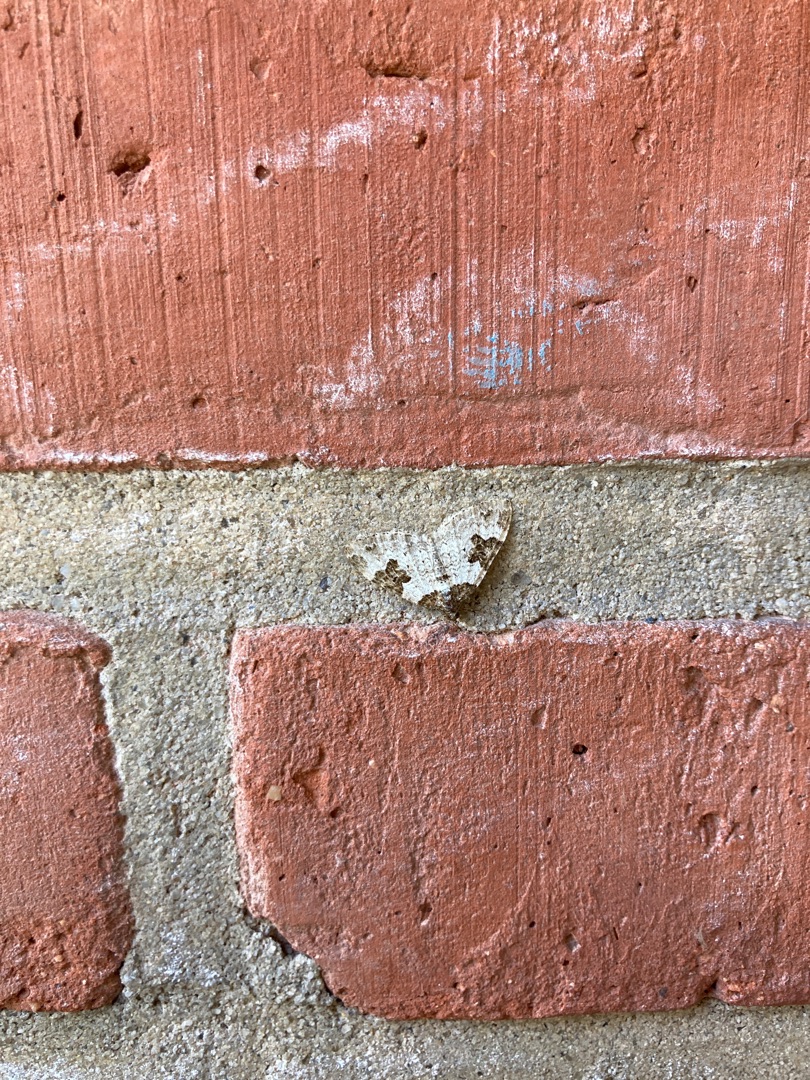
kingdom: Animalia
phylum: Arthropoda
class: Insecta
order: Lepidoptera
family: Geometridae
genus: Xanthorhoe
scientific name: Xanthorhoe fluctuata
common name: Sortbæltet bladmåler
